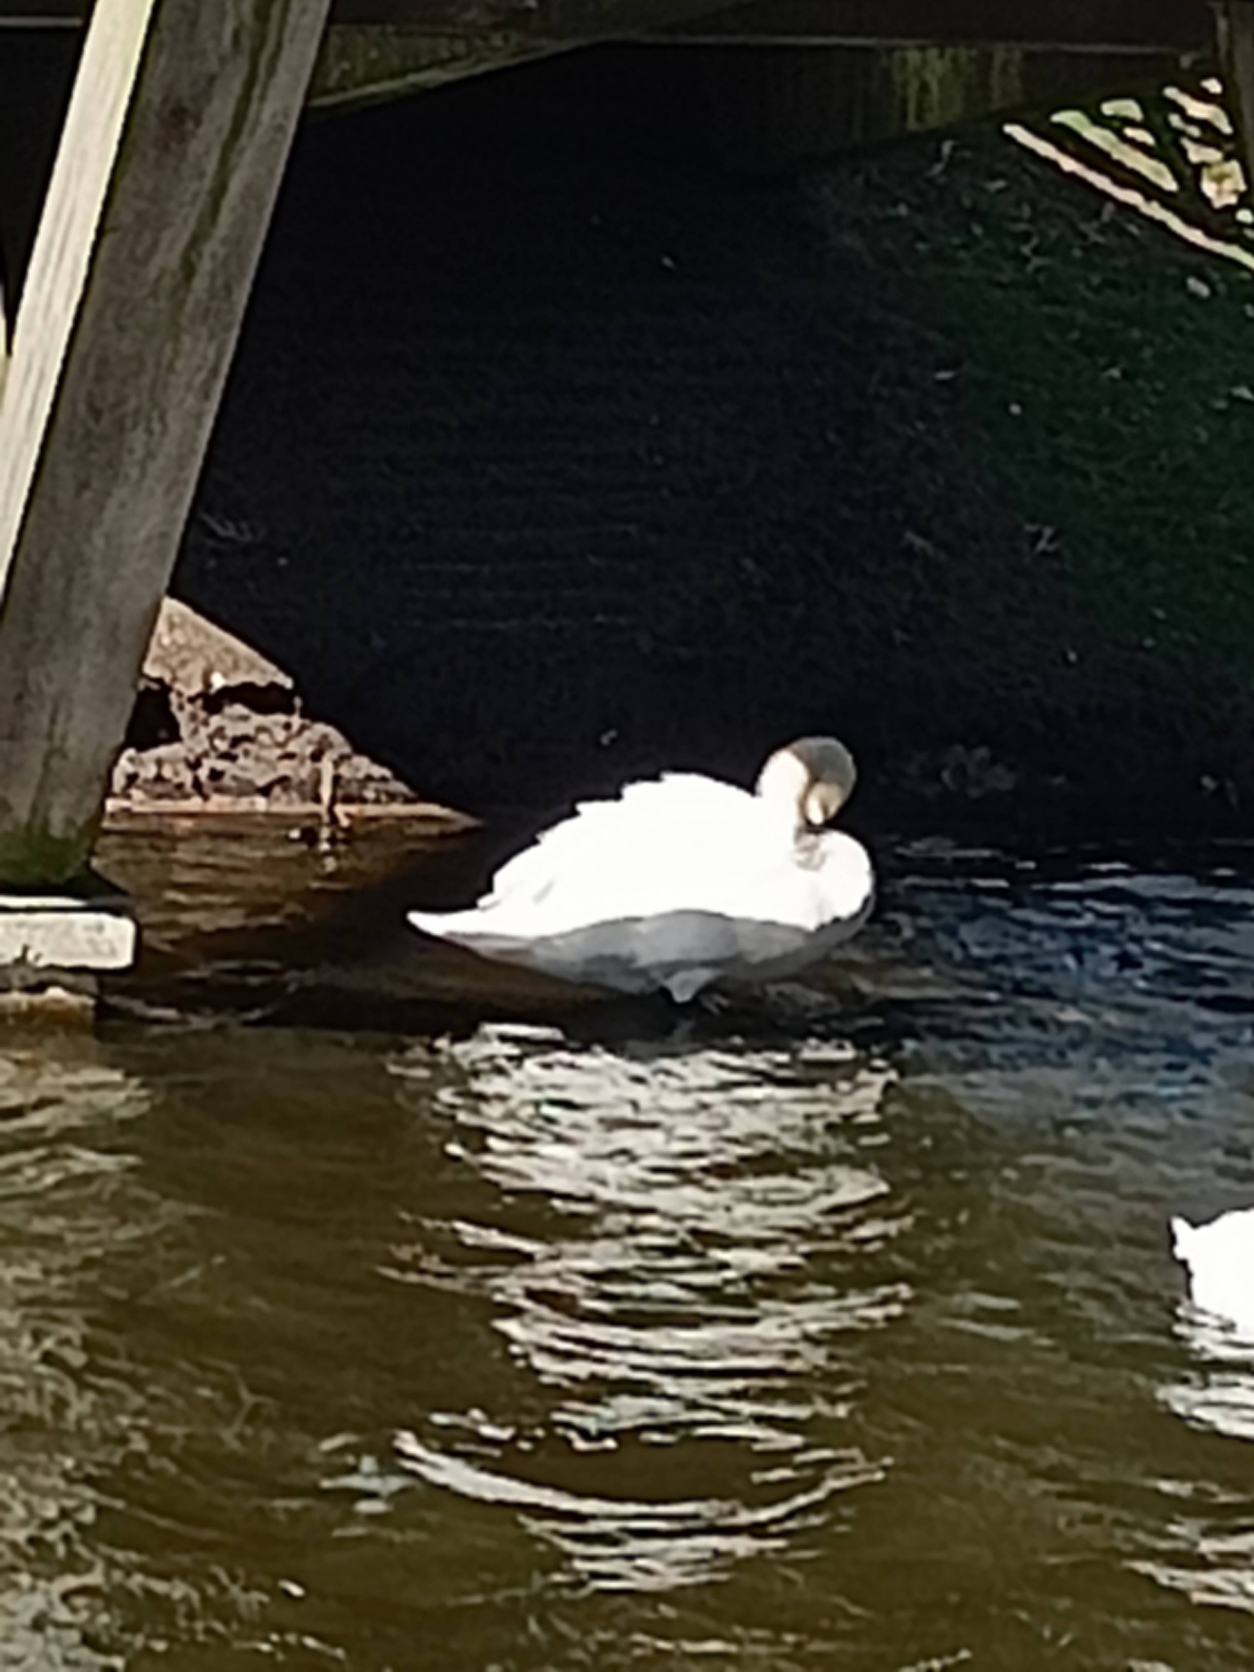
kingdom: Animalia
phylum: Chordata
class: Aves
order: Anseriformes
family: Anatidae
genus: Cygnus
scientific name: Cygnus olor
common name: Knopsvane
